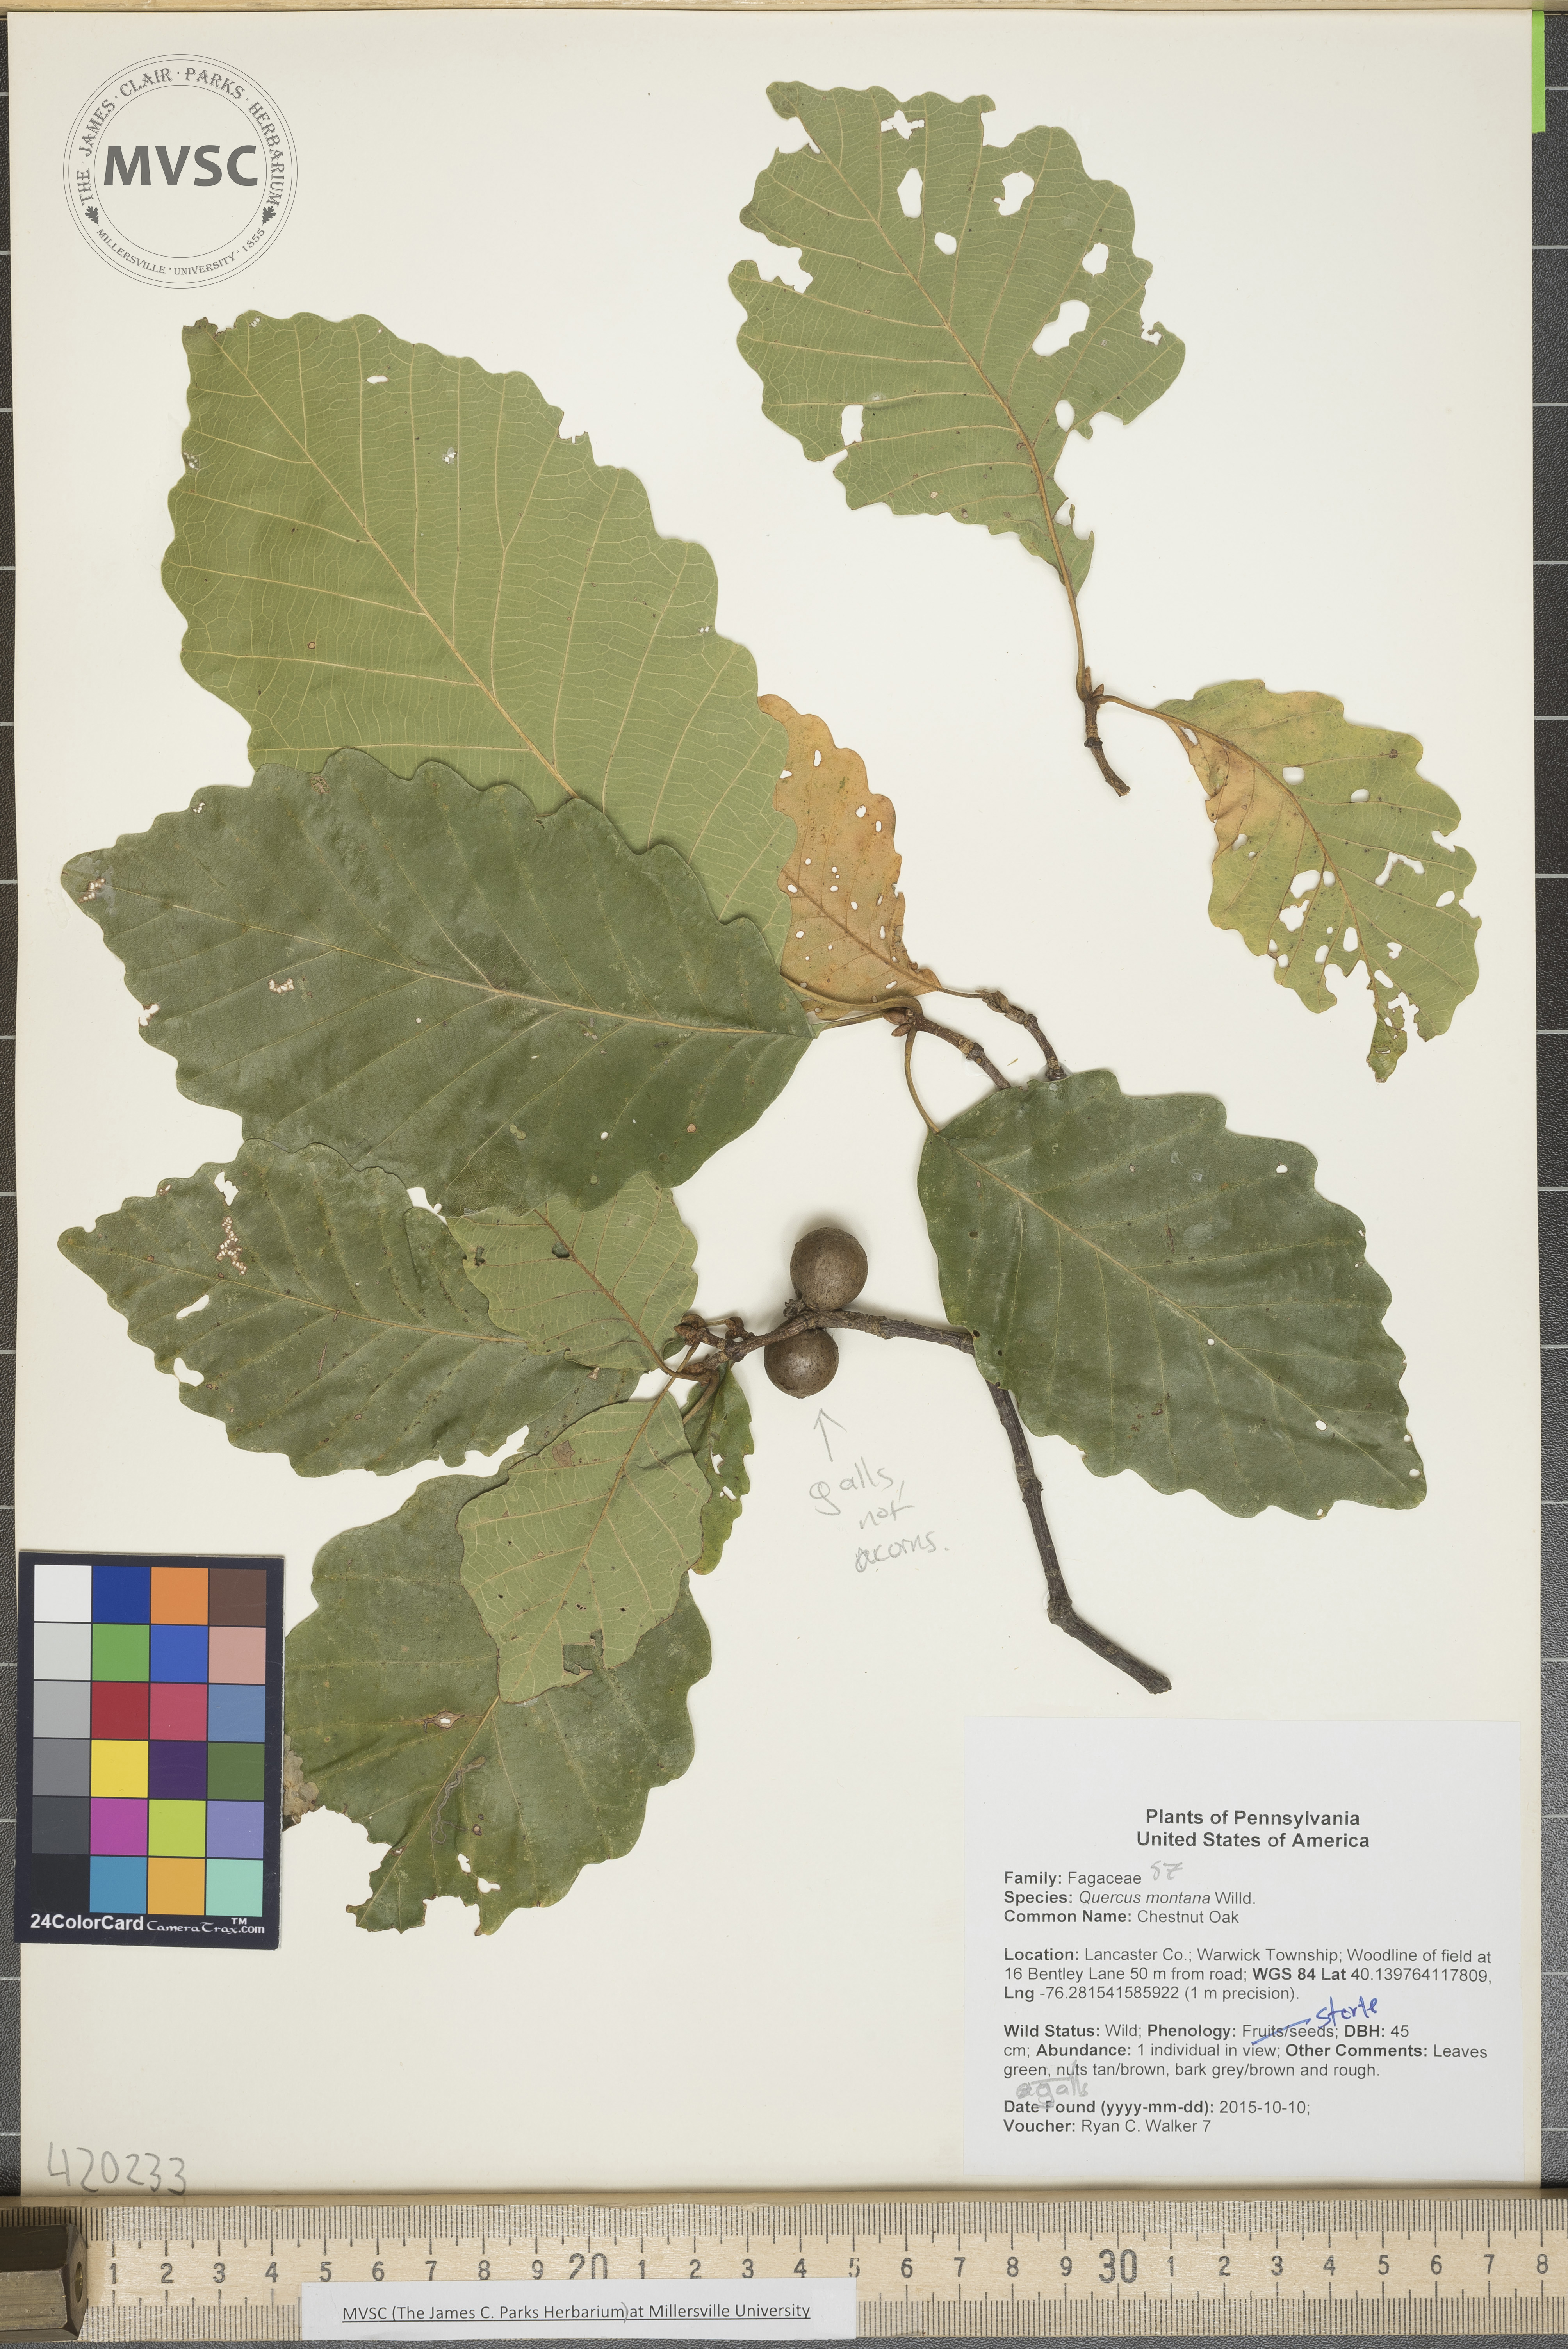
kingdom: Plantae
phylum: Tracheophyta
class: Magnoliopsida
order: Fagales
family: Fagaceae
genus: Quercus
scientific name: Quercus montana
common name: Chestnut Oak
